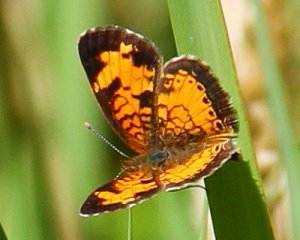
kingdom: Animalia
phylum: Arthropoda
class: Insecta
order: Lepidoptera
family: Nymphalidae
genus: Phyciodes
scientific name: Phyciodes tharos
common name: Pearl Crescent
